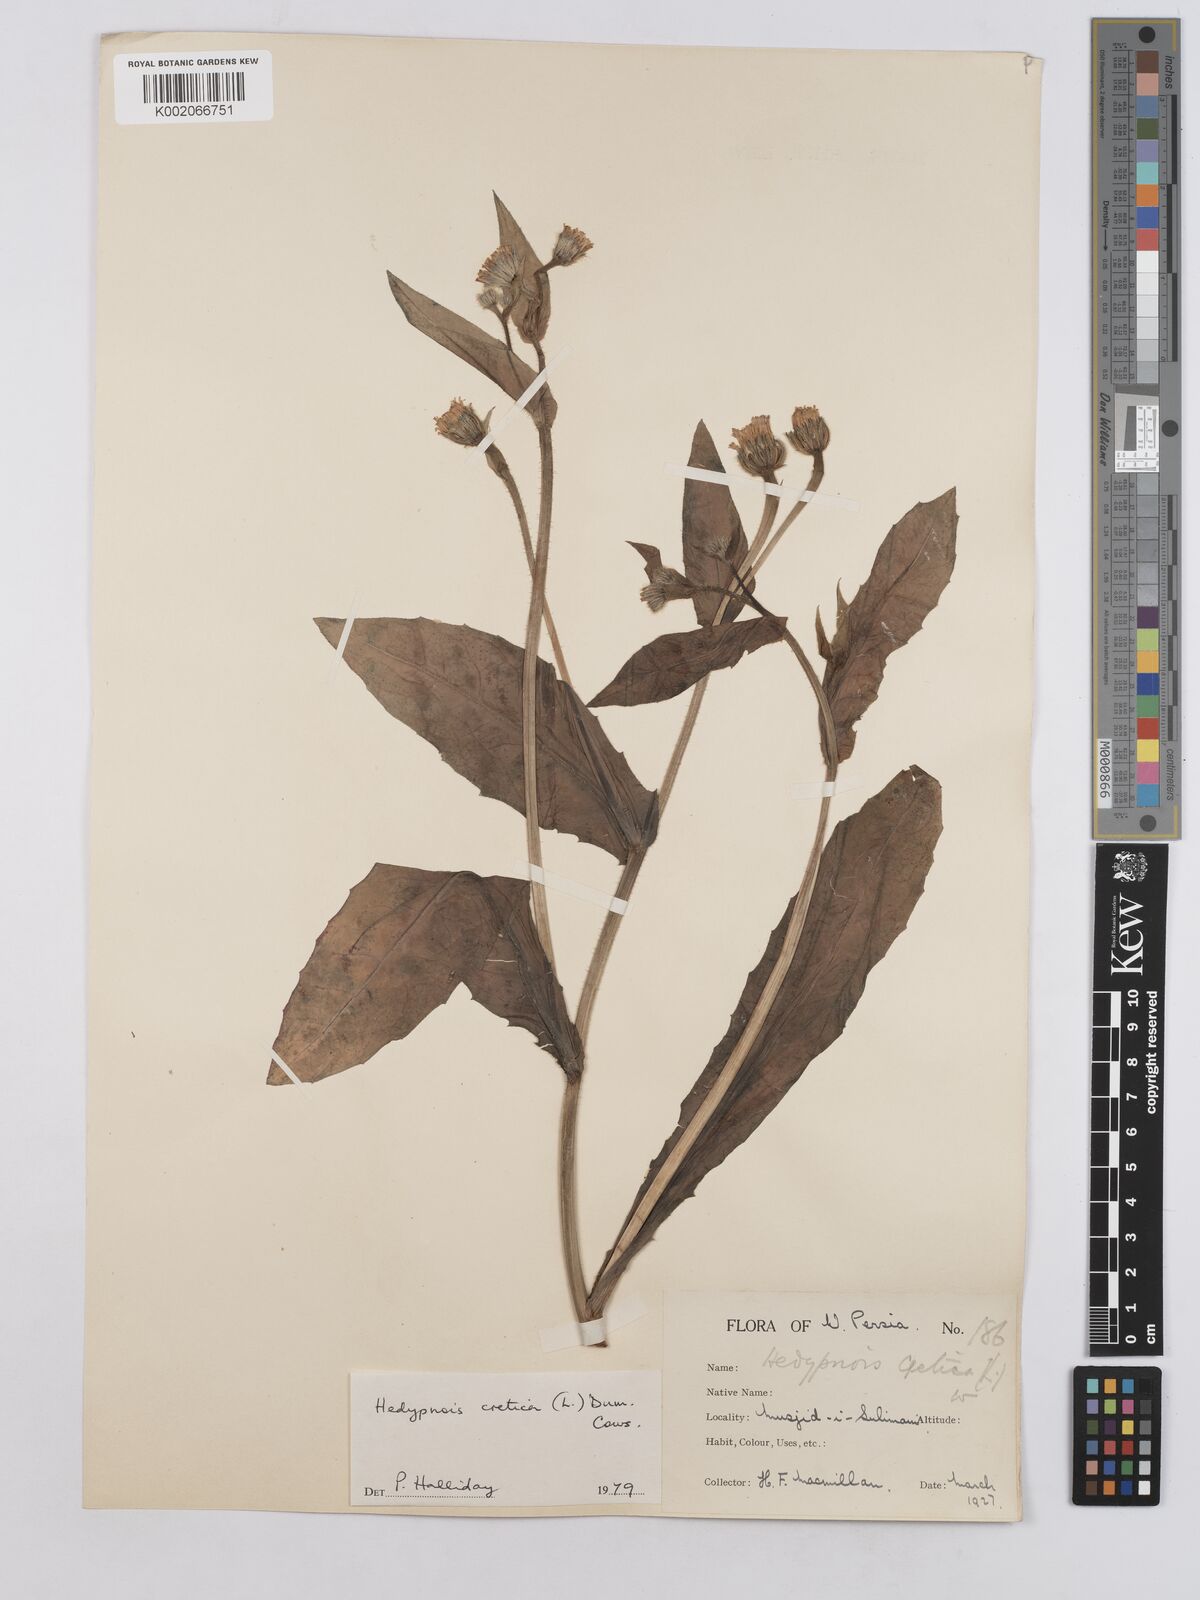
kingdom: Plantae
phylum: Tracheophyta
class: Magnoliopsida
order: Asterales
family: Asteraceae
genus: Hedypnois
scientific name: Hedypnois cretica
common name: Scaly hawkbit
